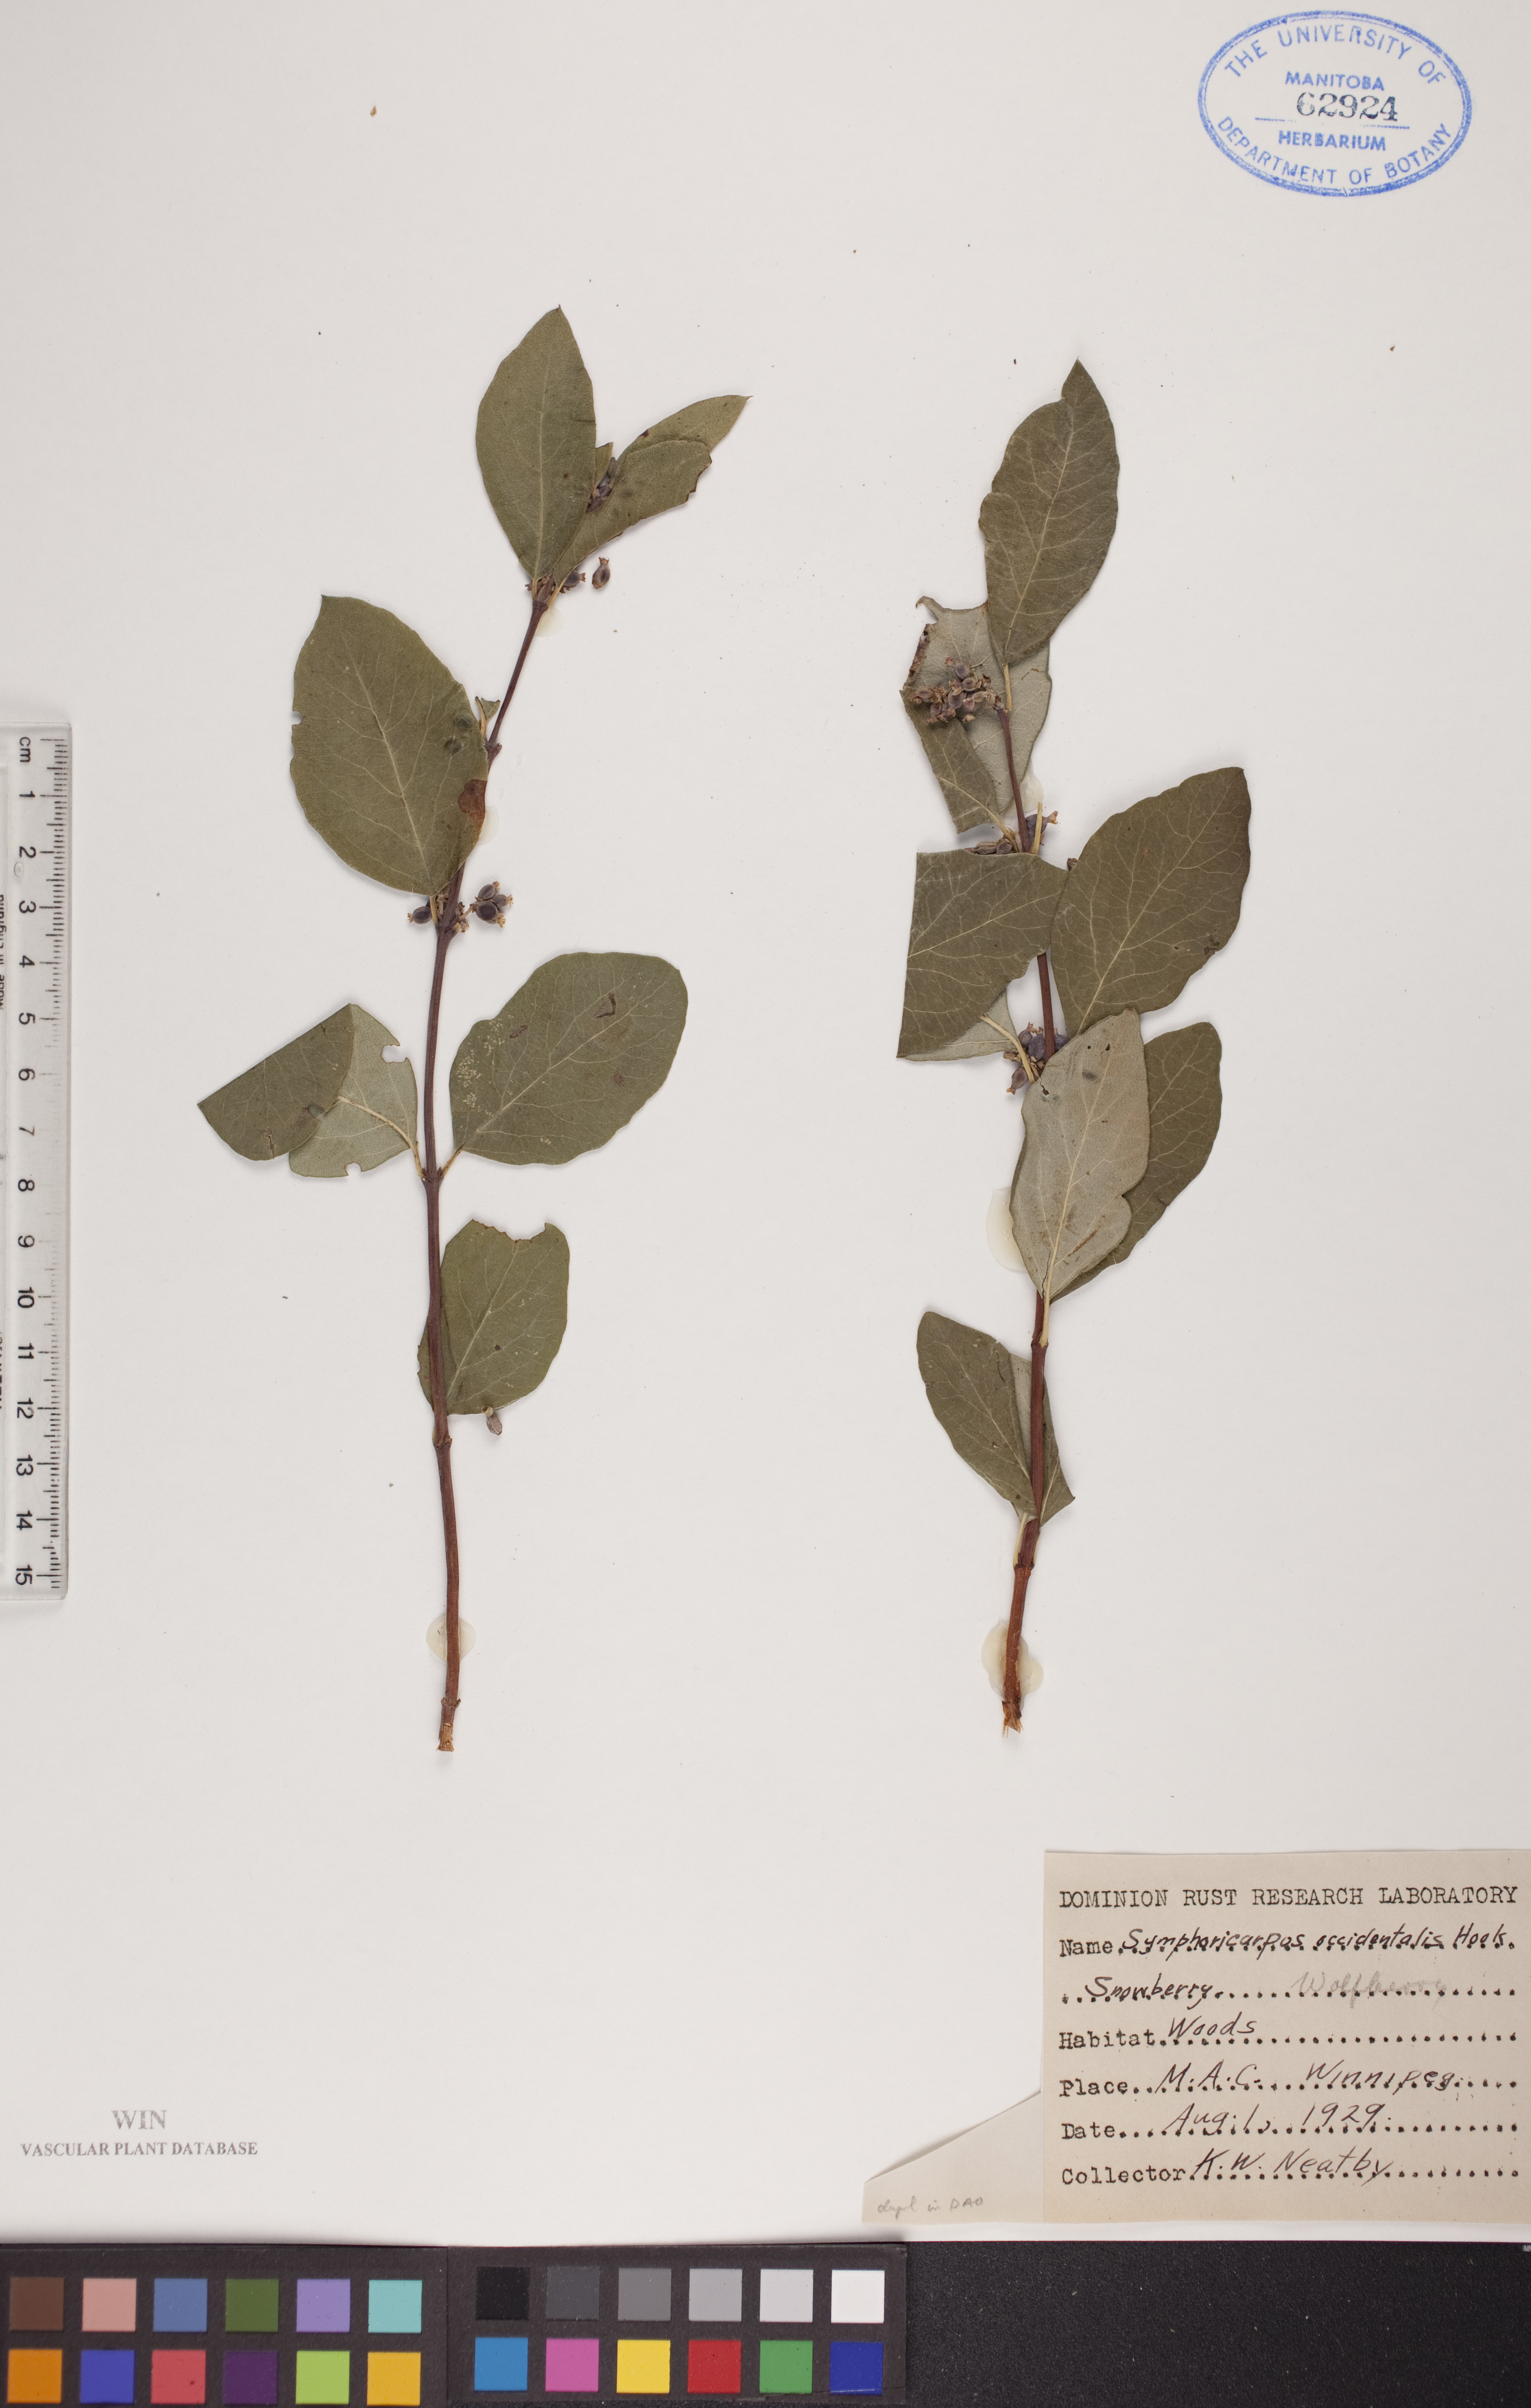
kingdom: Plantae
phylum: Tracheophyta
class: Magnoliopsida
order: Dipsacales
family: Caprifoliaceae
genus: Symphoricarpos
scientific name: Symphoricarpos occidentalis
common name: Wolfberry
